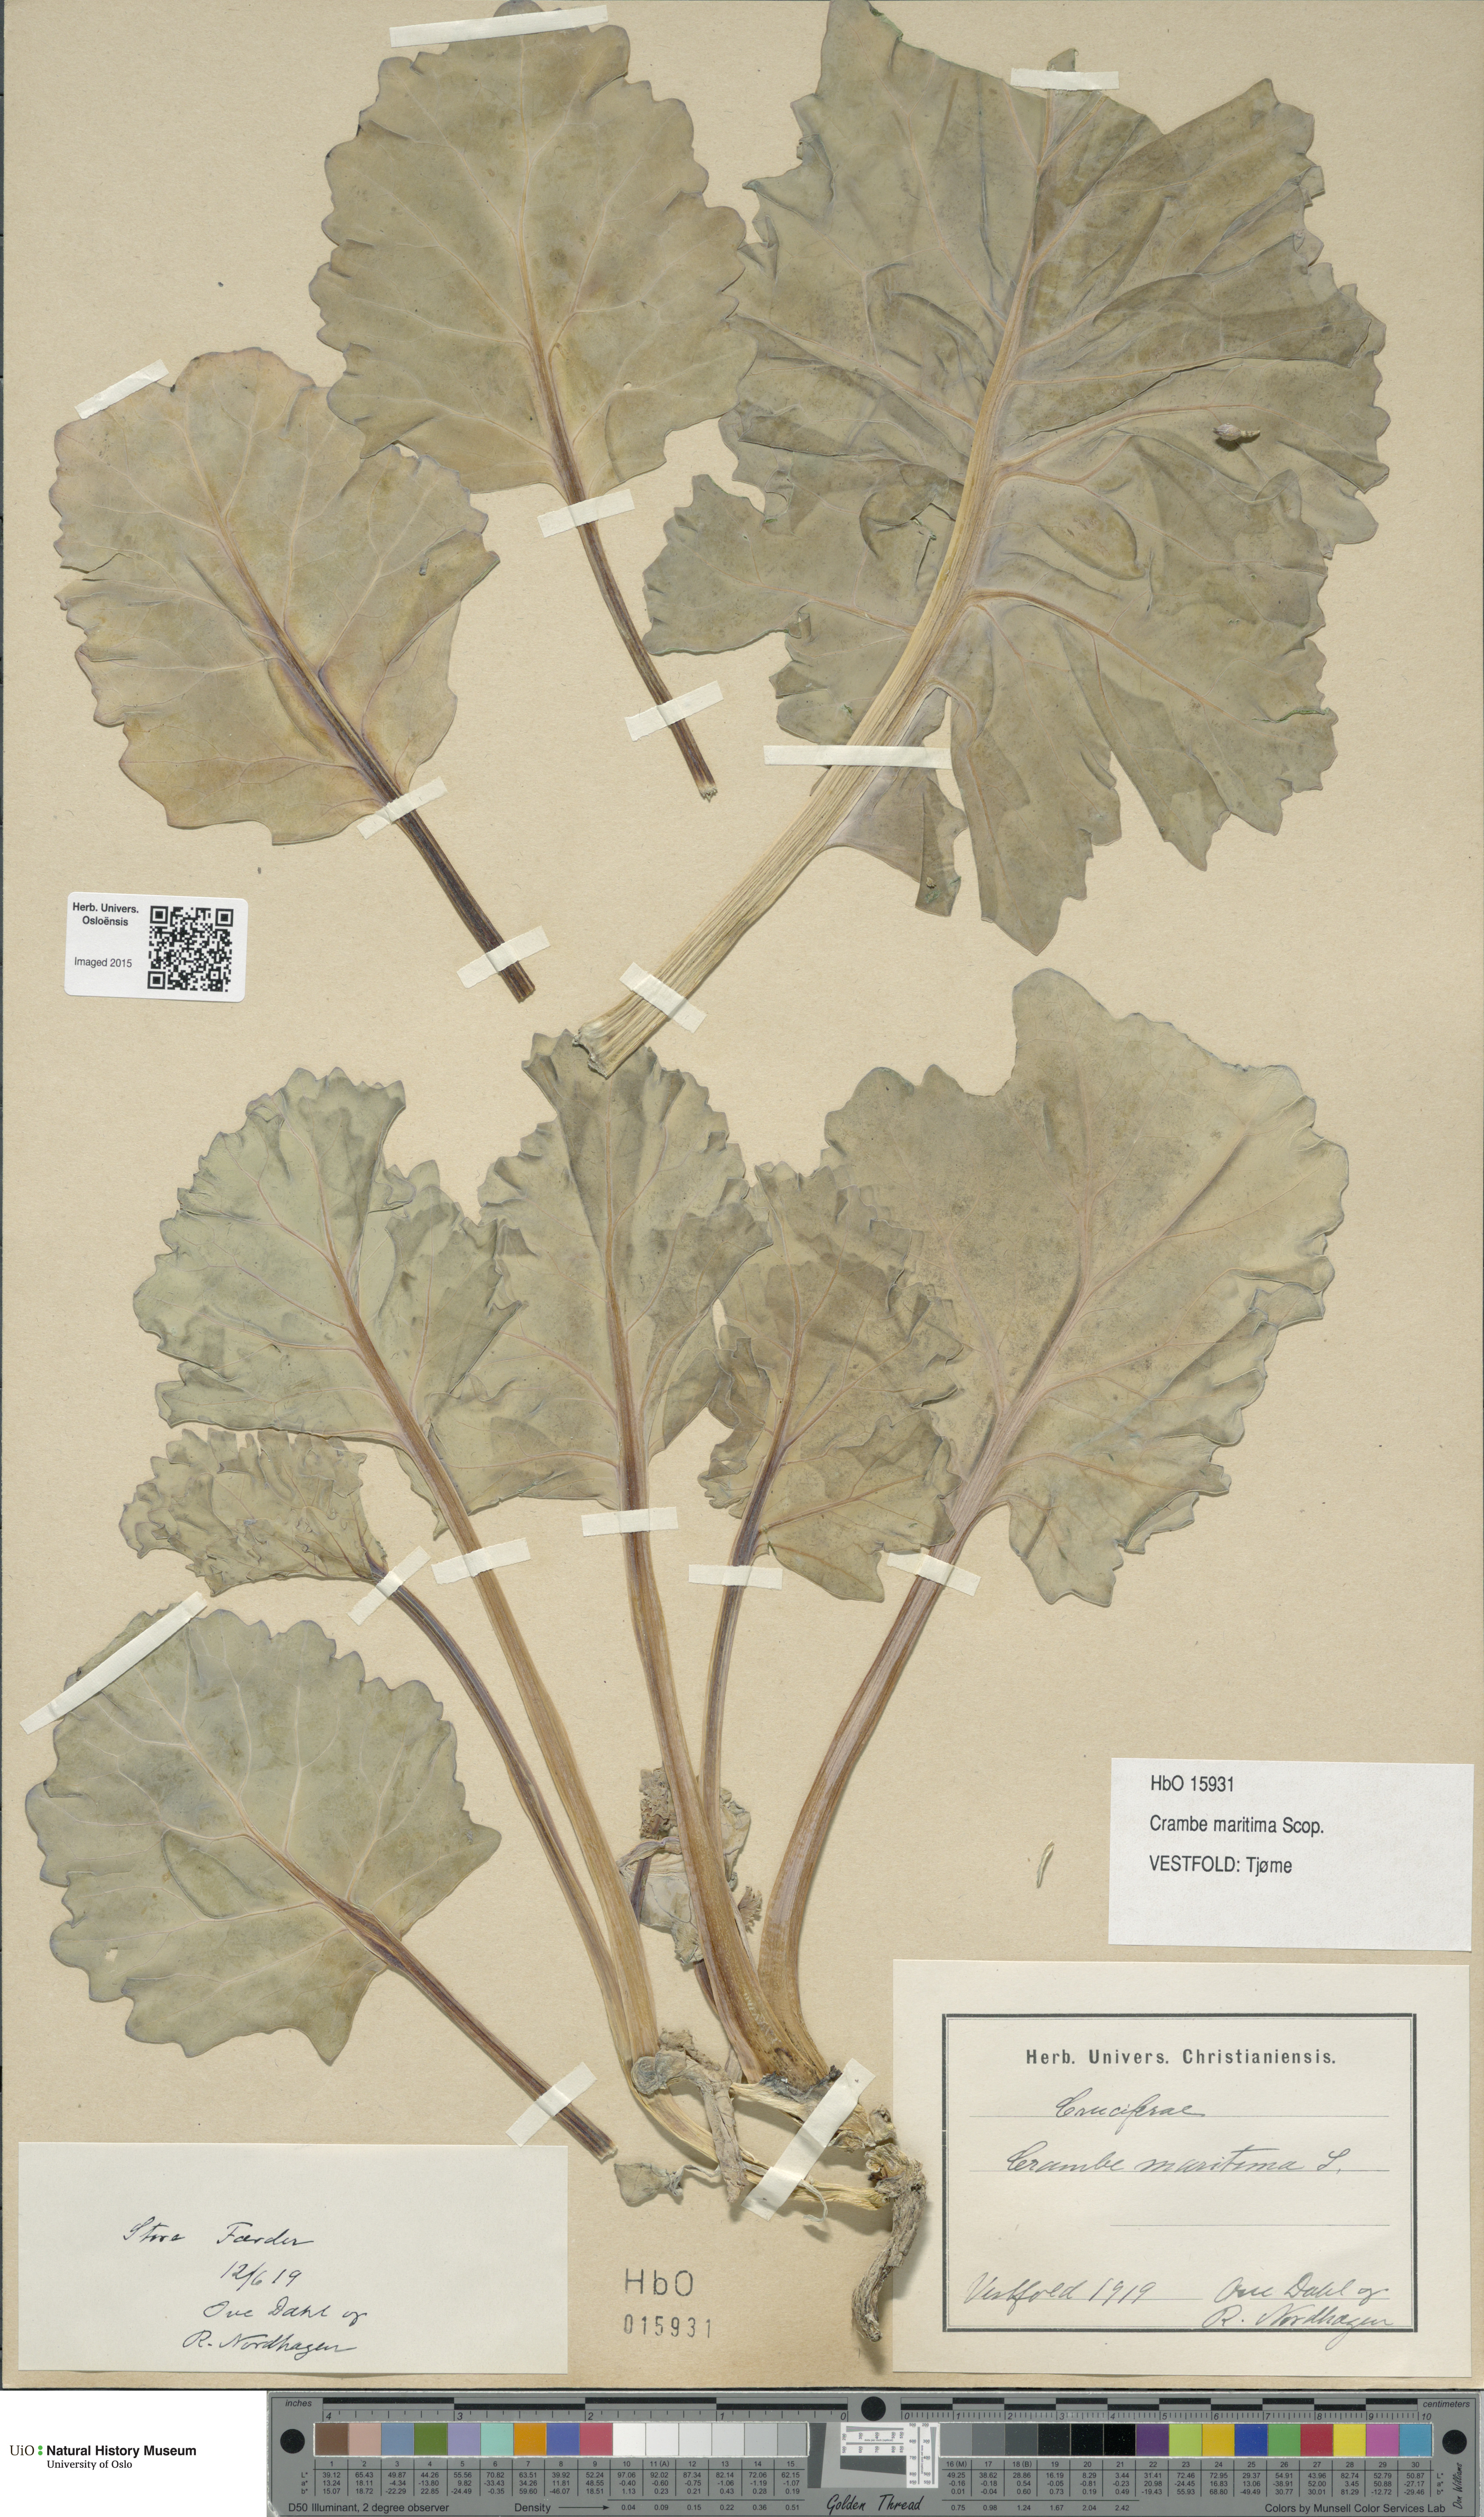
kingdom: Plantae
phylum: Tracheophyta
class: Magnoliopsida
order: Brassicales
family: Brassicaceae
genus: Crambe
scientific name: Crambe maritima
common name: Sea-kale
